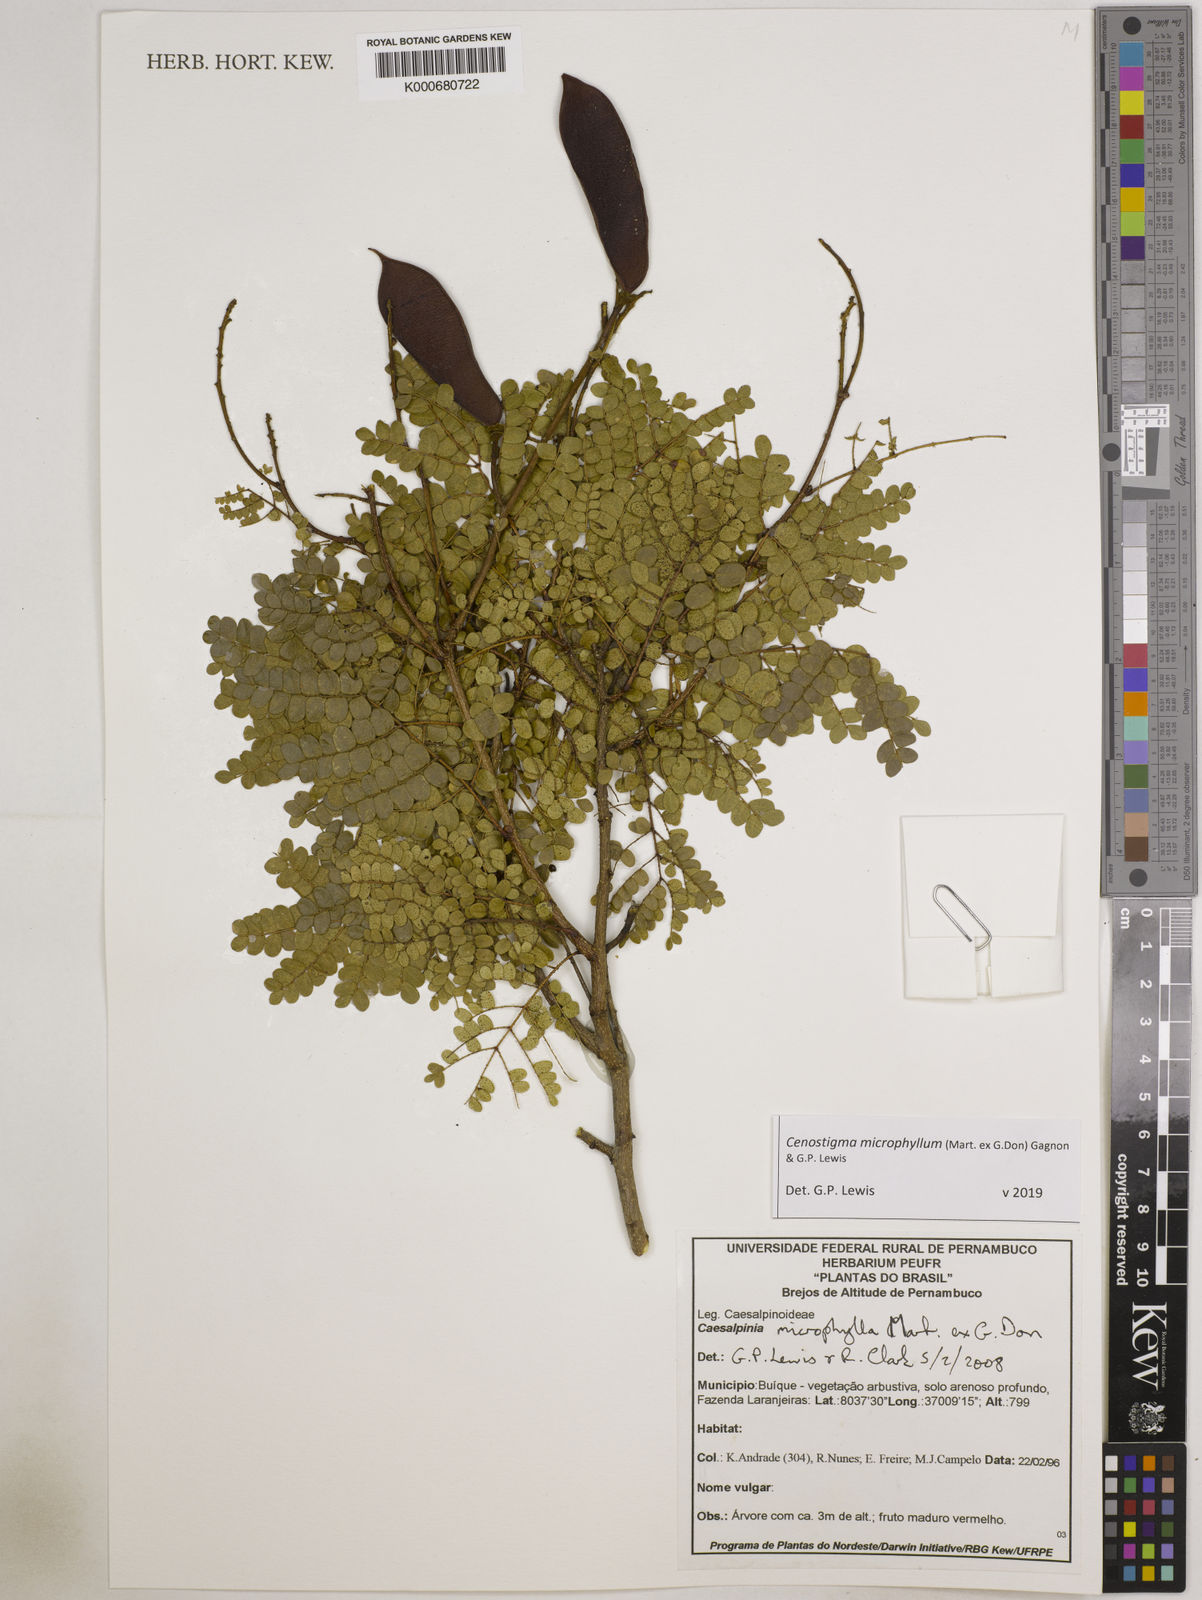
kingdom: Plantae
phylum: Tracheophyta
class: Magnoliopsida
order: Fabales
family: Fabaceae
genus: Cenostigma
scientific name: Cenostigma microphyllum
